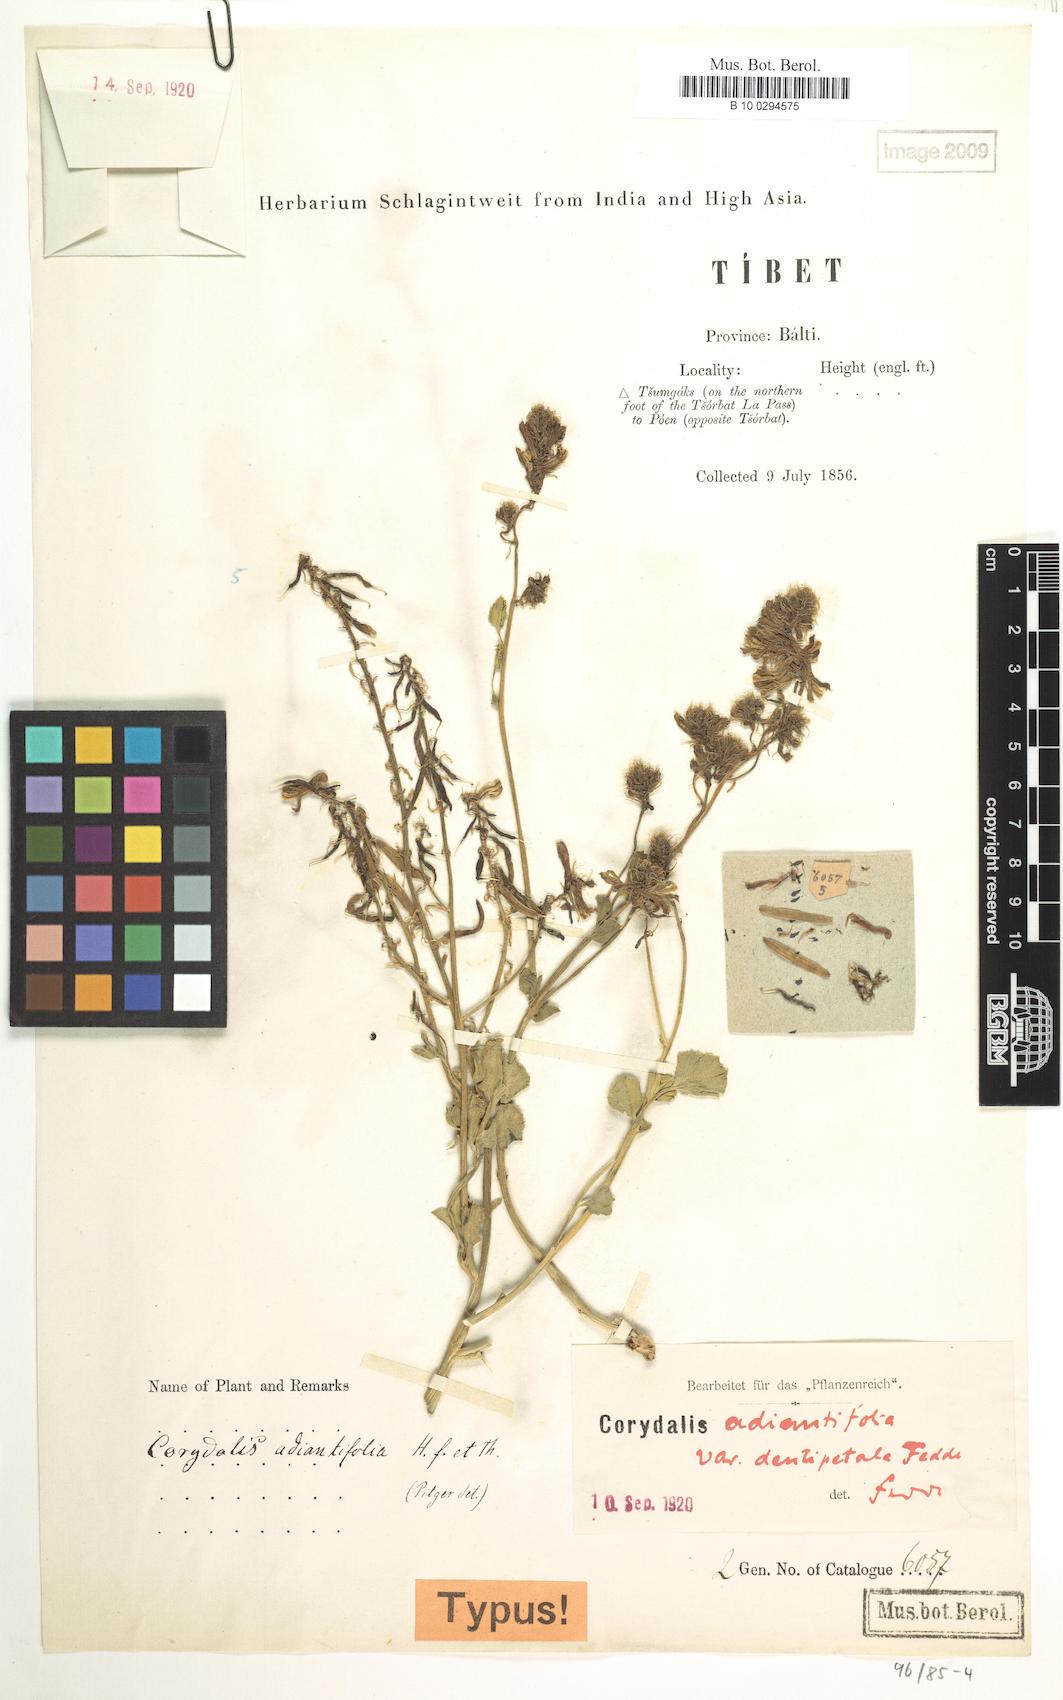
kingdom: Plantae
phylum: Tracheophyta
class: Magnoliopsida
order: Ranunculales
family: Papaveraceae
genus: Corydalis
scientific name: Corydalis adiantifolia
